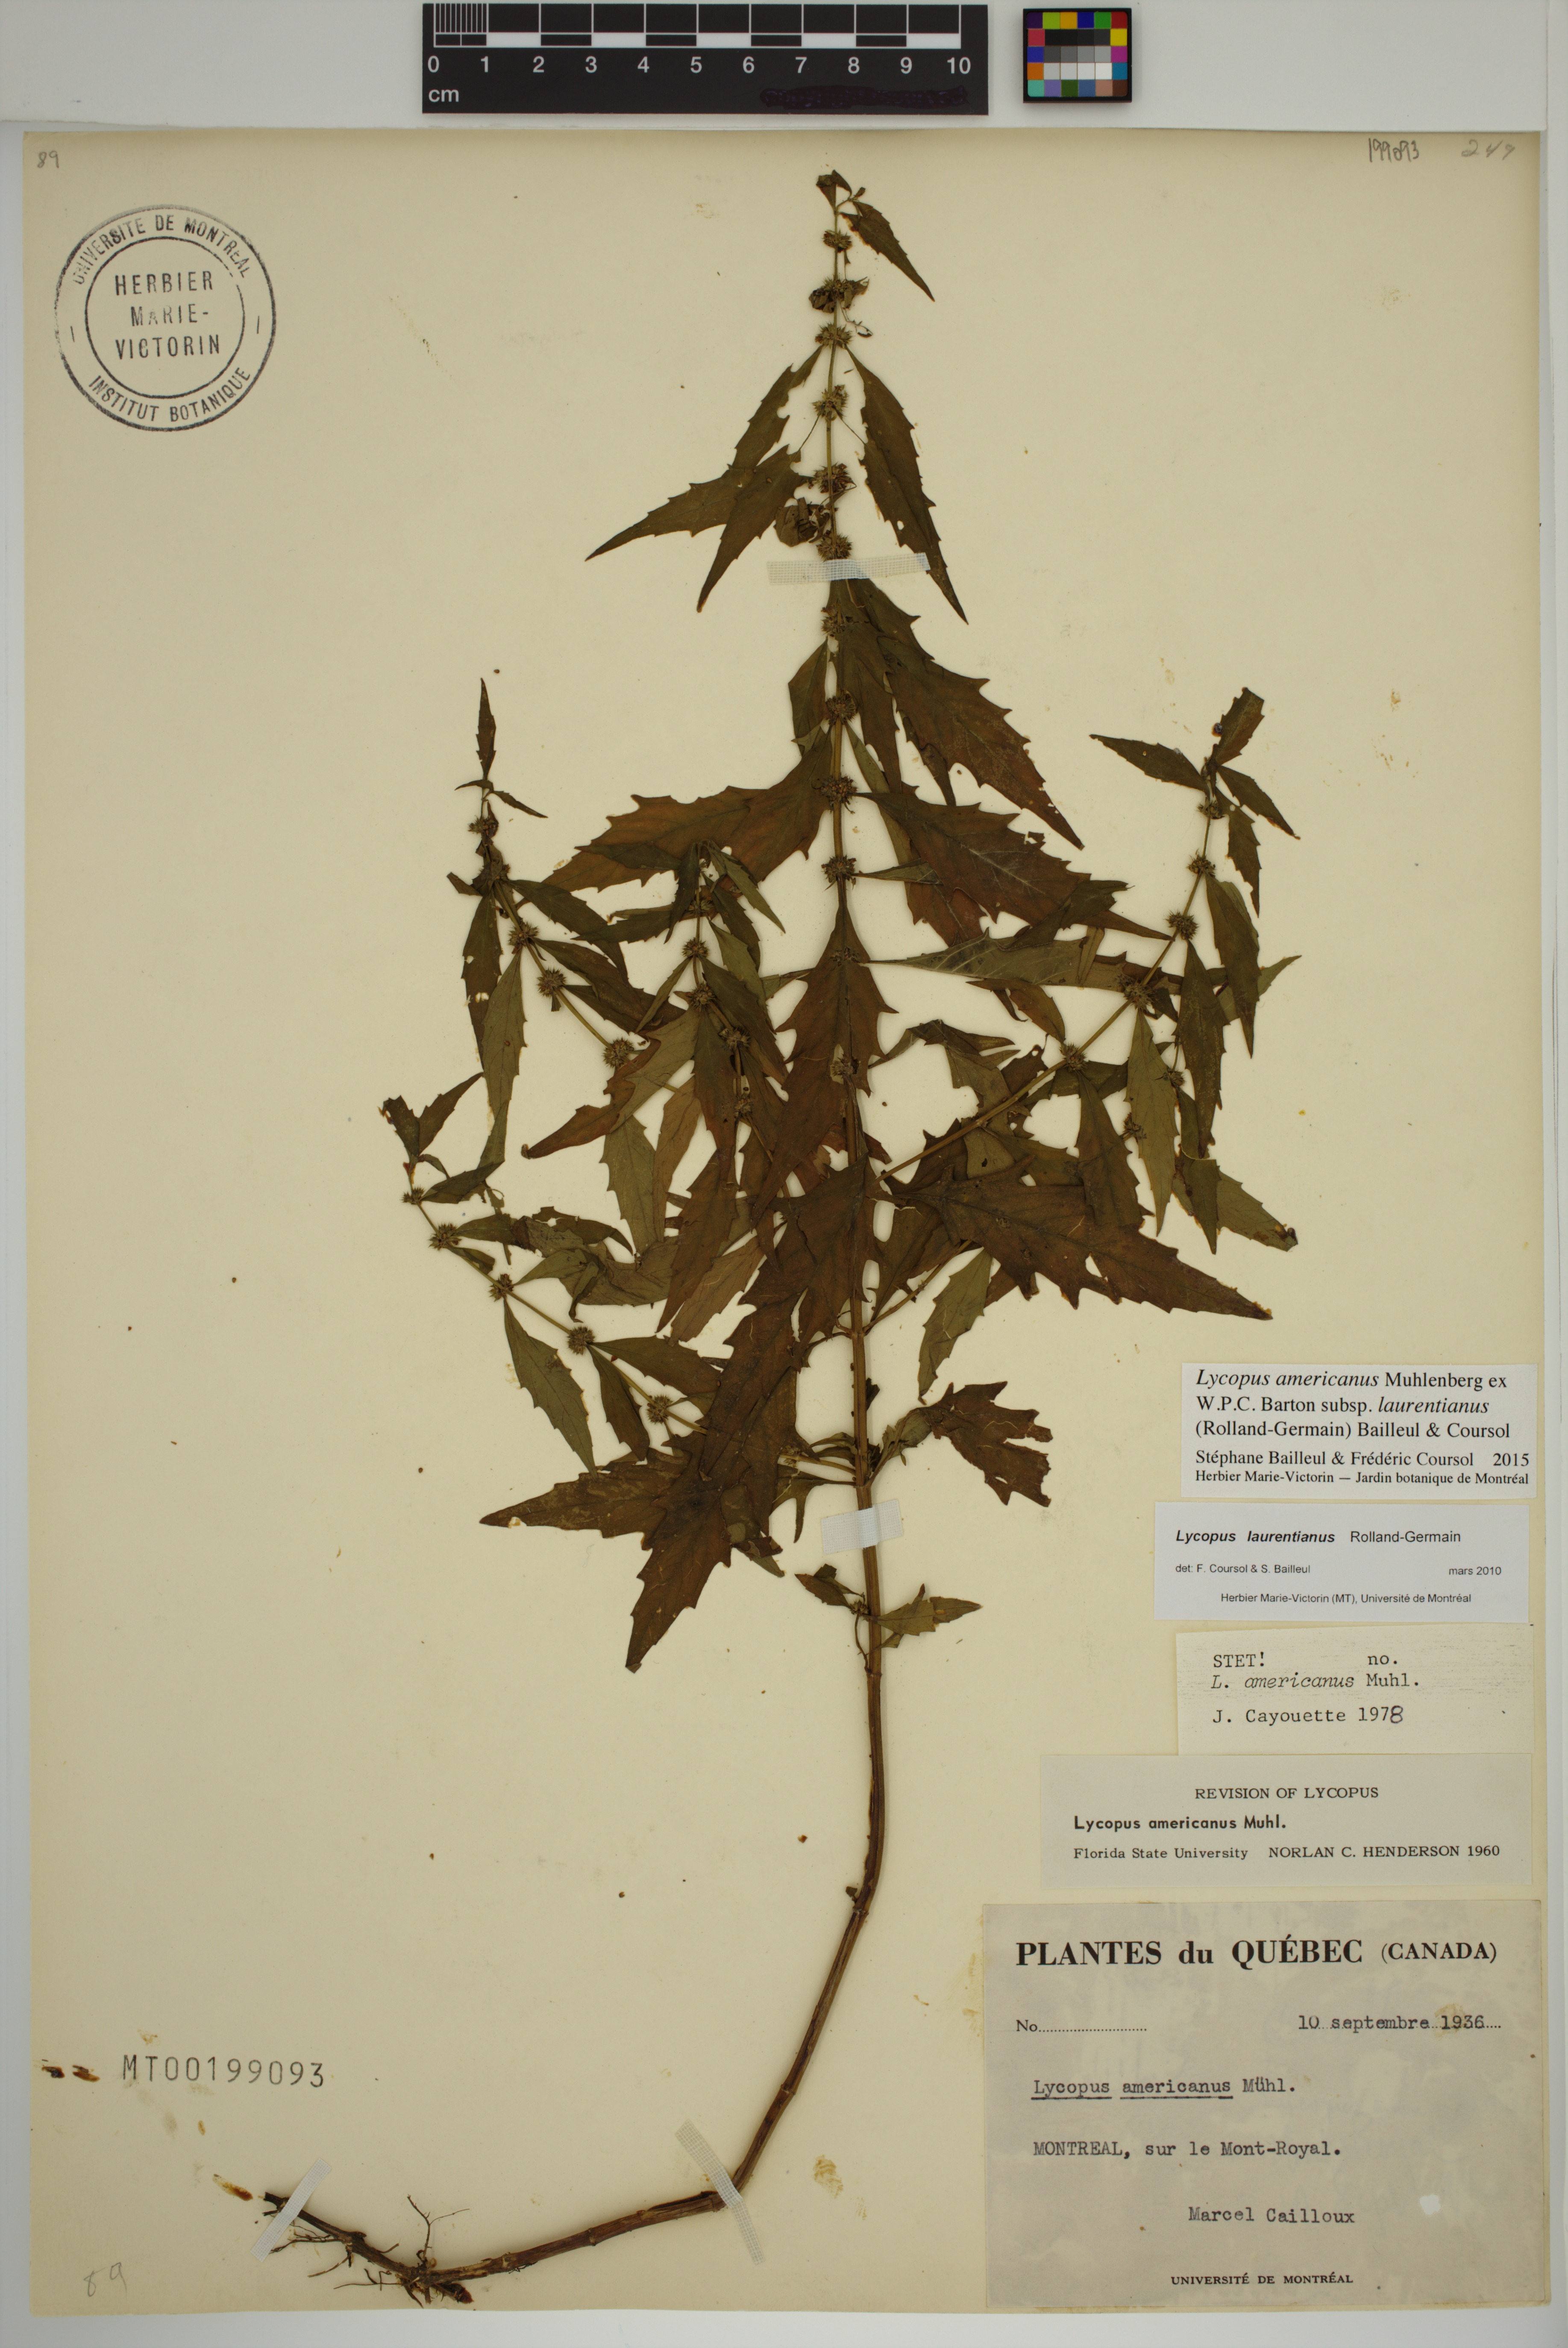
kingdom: Plantae
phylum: Tracheophyta
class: Magnoliopsida
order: Lamiales
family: Lamiaceae
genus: Lycopus
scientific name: Lycopus americanus
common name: American bugleweed
